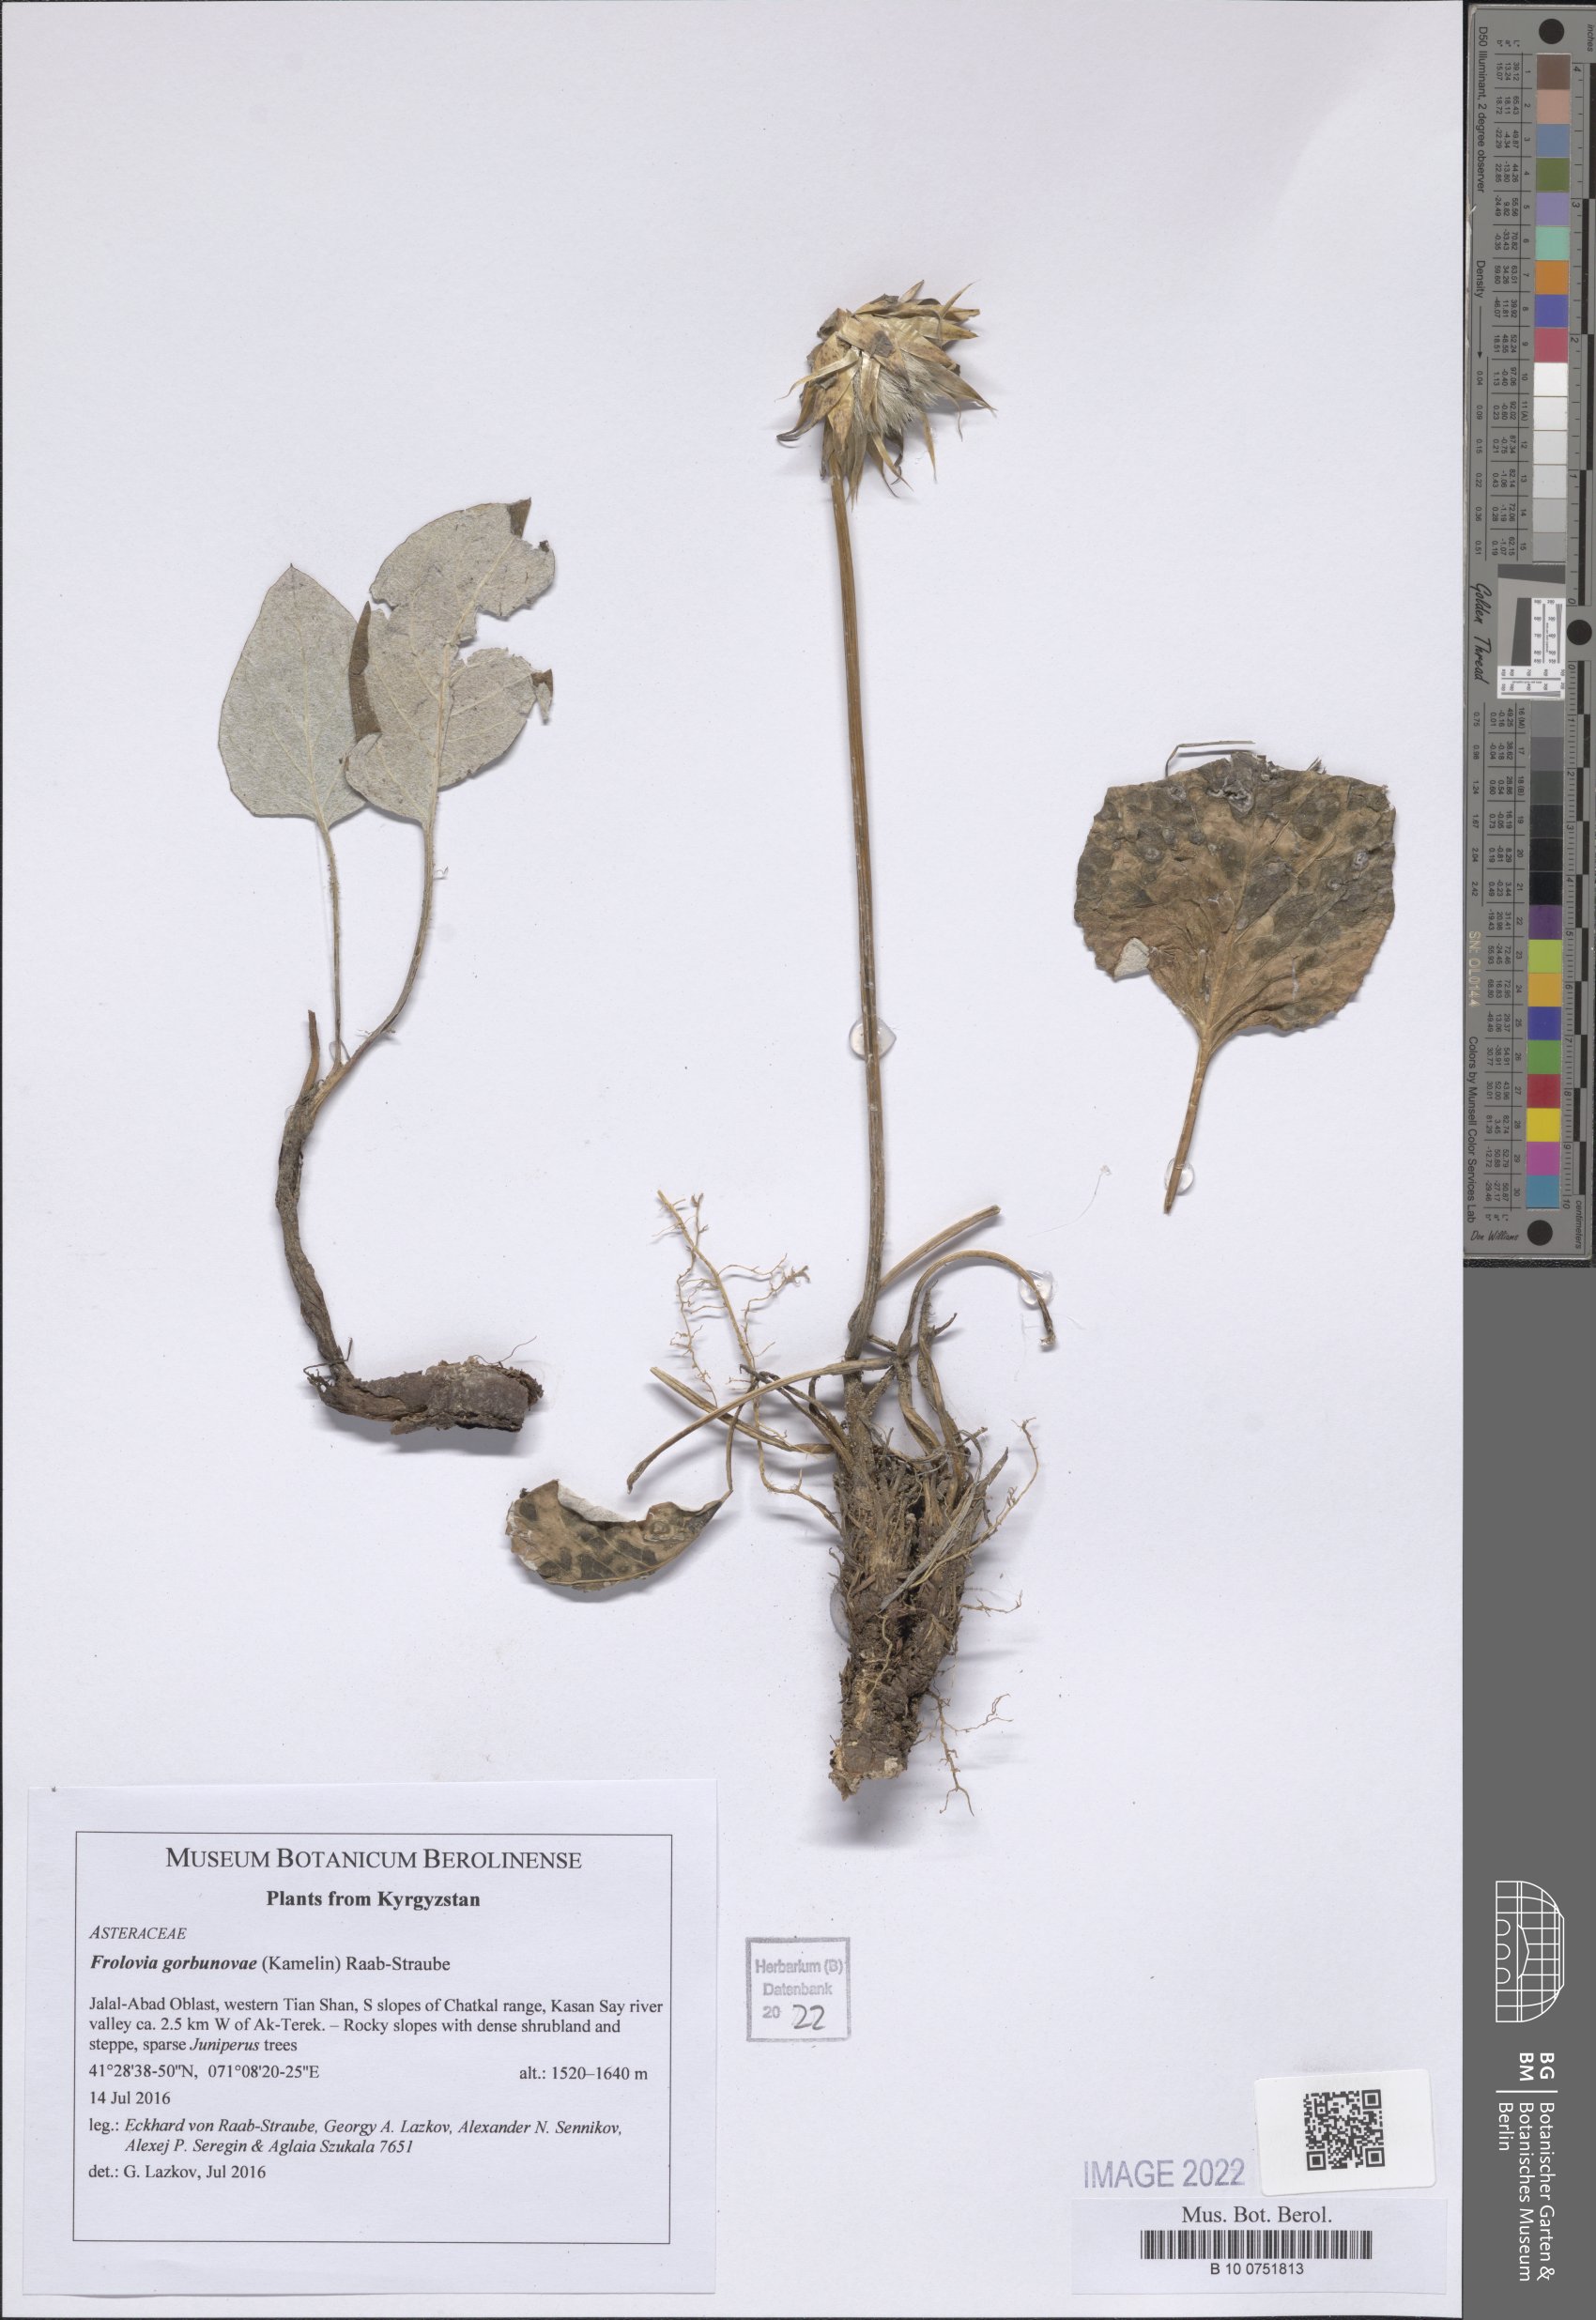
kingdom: Plantae
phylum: Tracheophyta
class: Magnoliopsida
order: Asterales
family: Asteraceae
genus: Dolomiaea
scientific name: Dolomiaea gorbunovae
